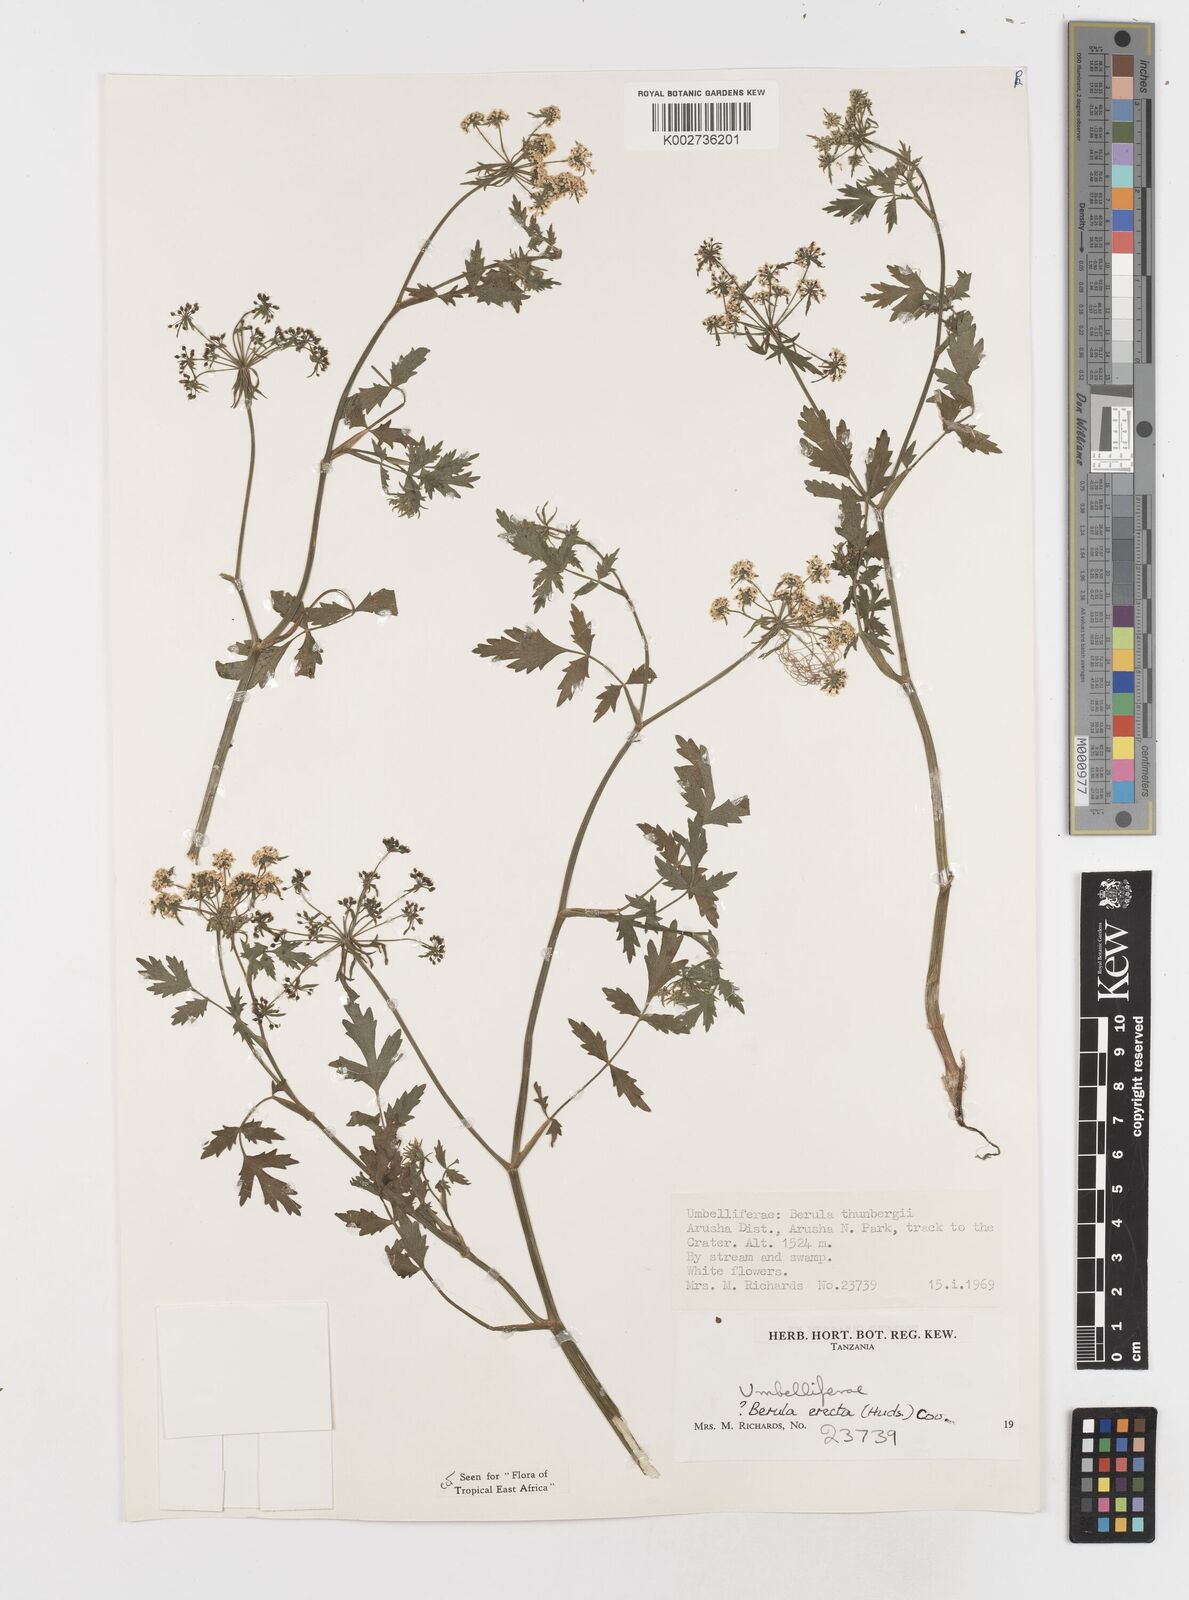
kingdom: Plantae
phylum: Tracheophyta
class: Magnoliopsida
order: Apiales
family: Apiaceae
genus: Berula
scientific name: Berula erecta
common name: Lesser water-parsnip
